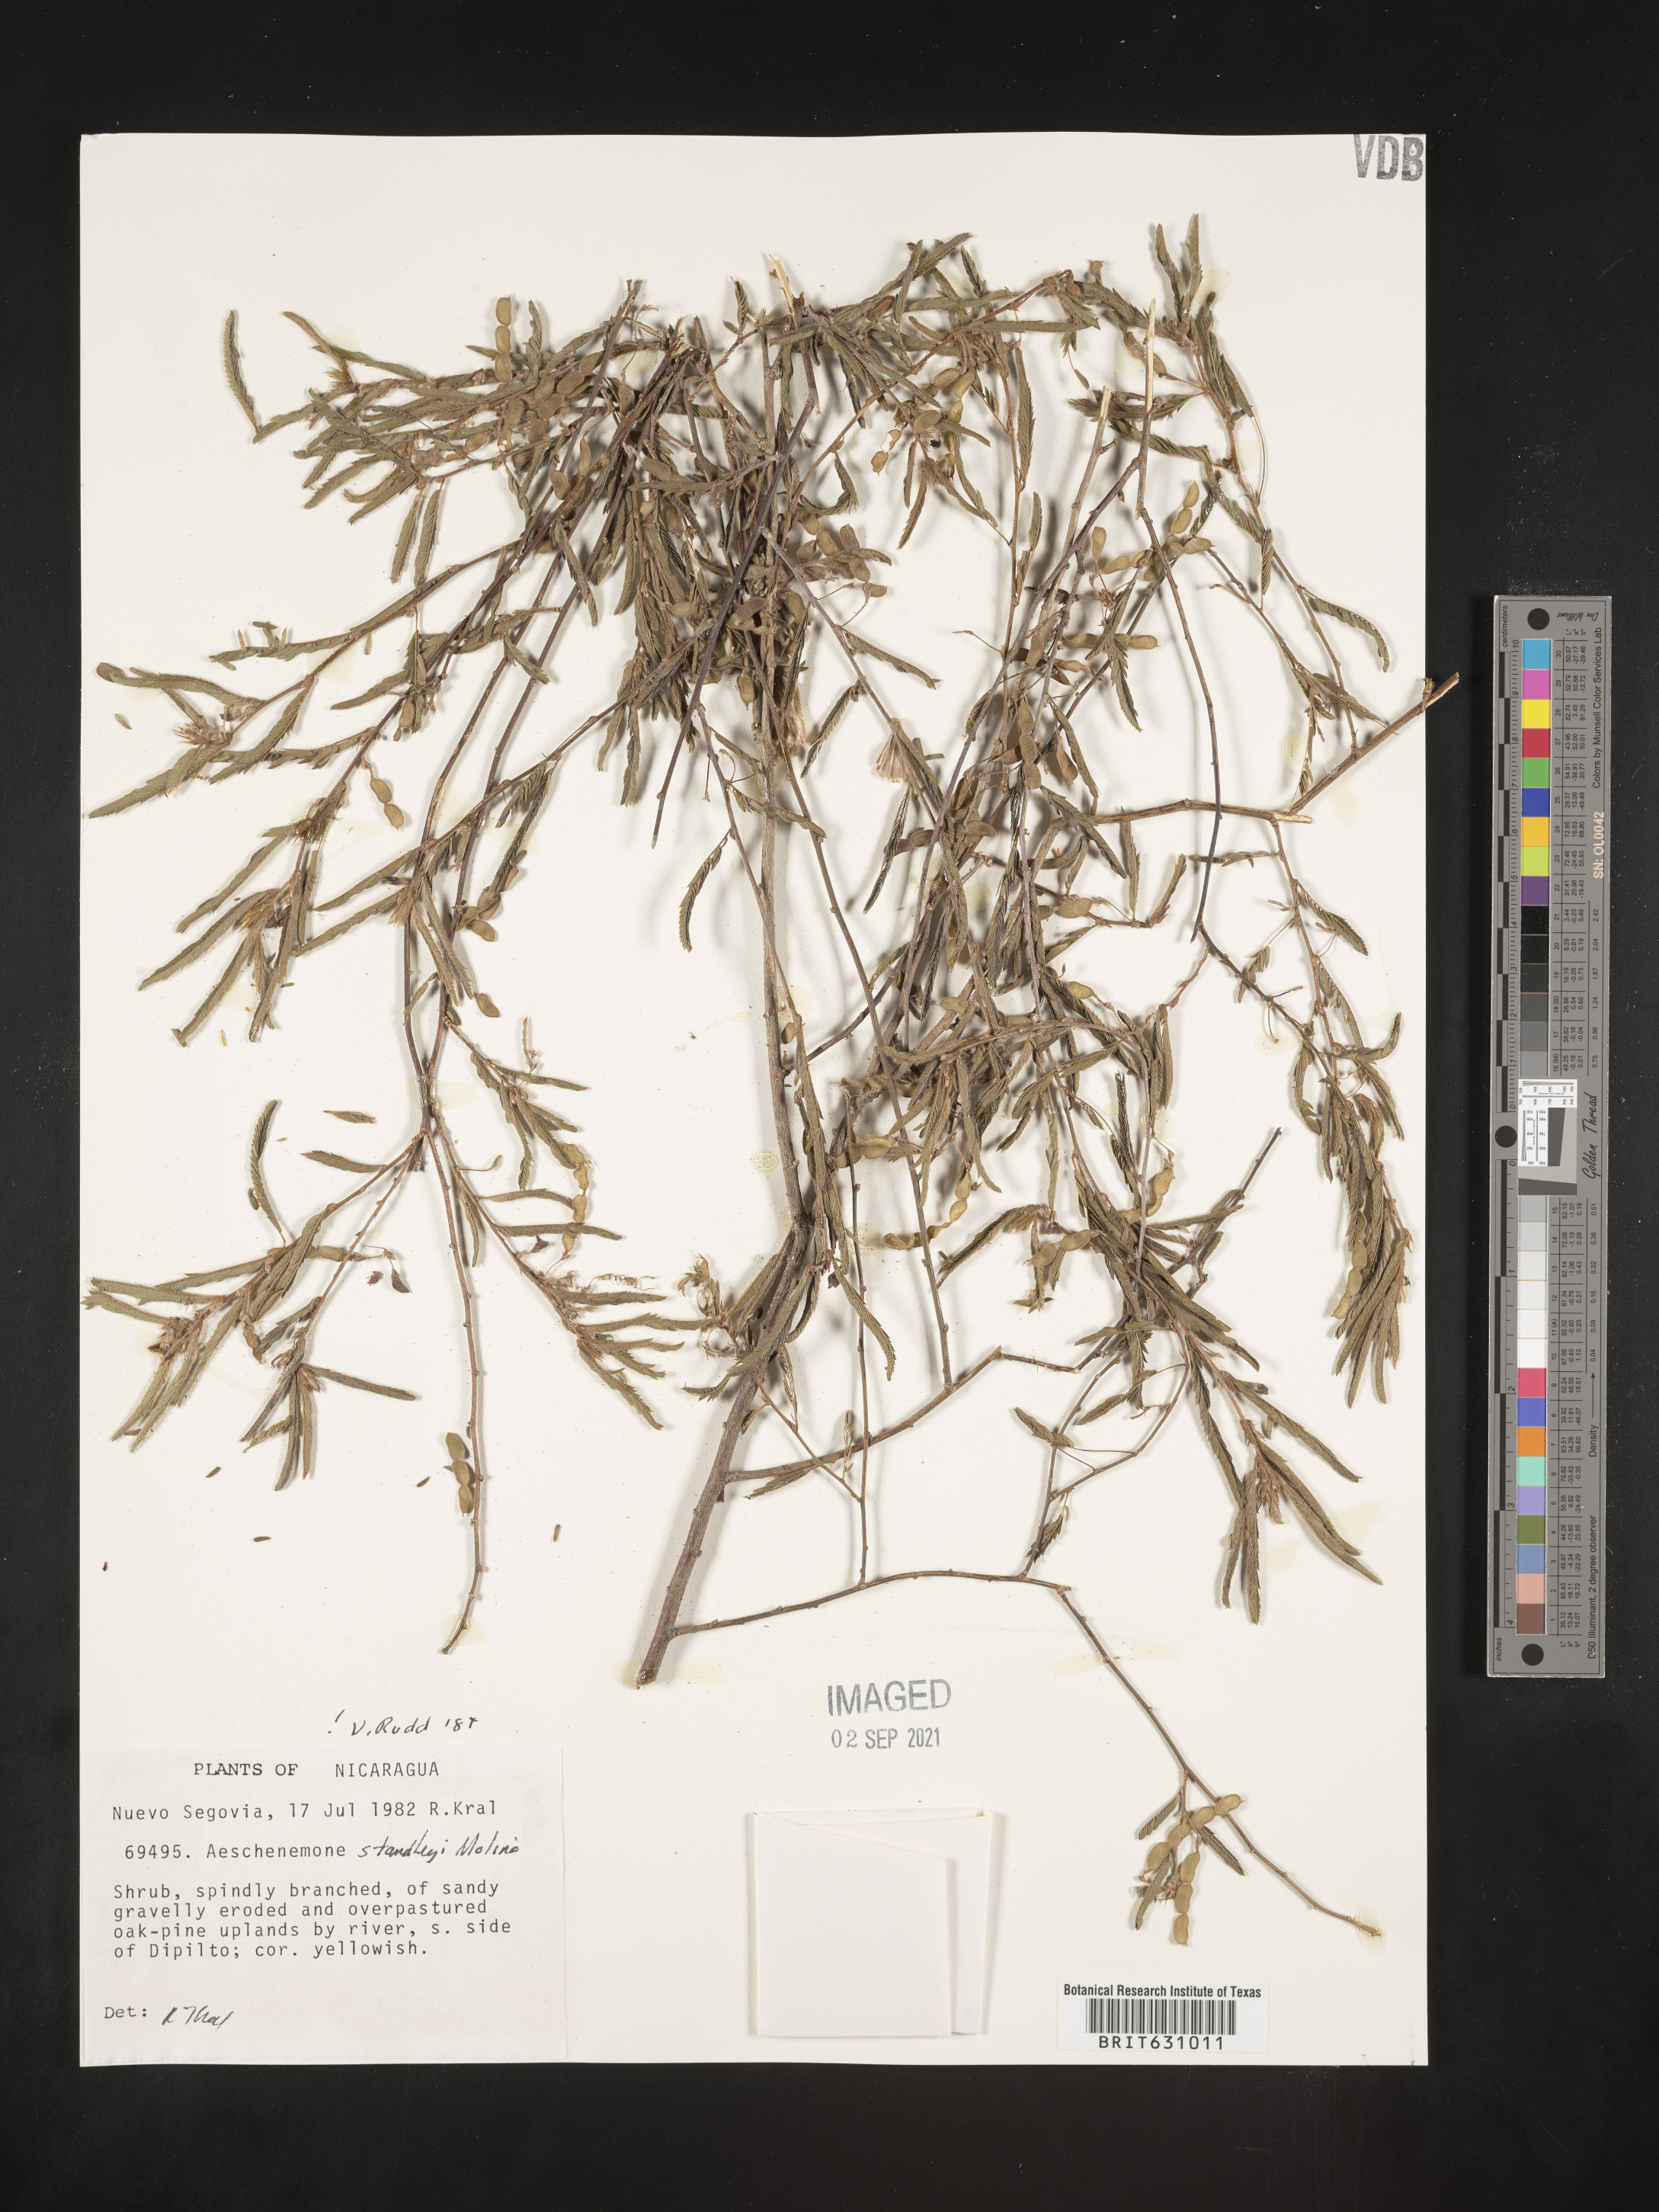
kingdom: Plantae
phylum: Tracheophyta
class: Magnoliopsida
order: Fabales
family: Fabaceae
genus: Aeschynomene
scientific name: Aeschynomene
